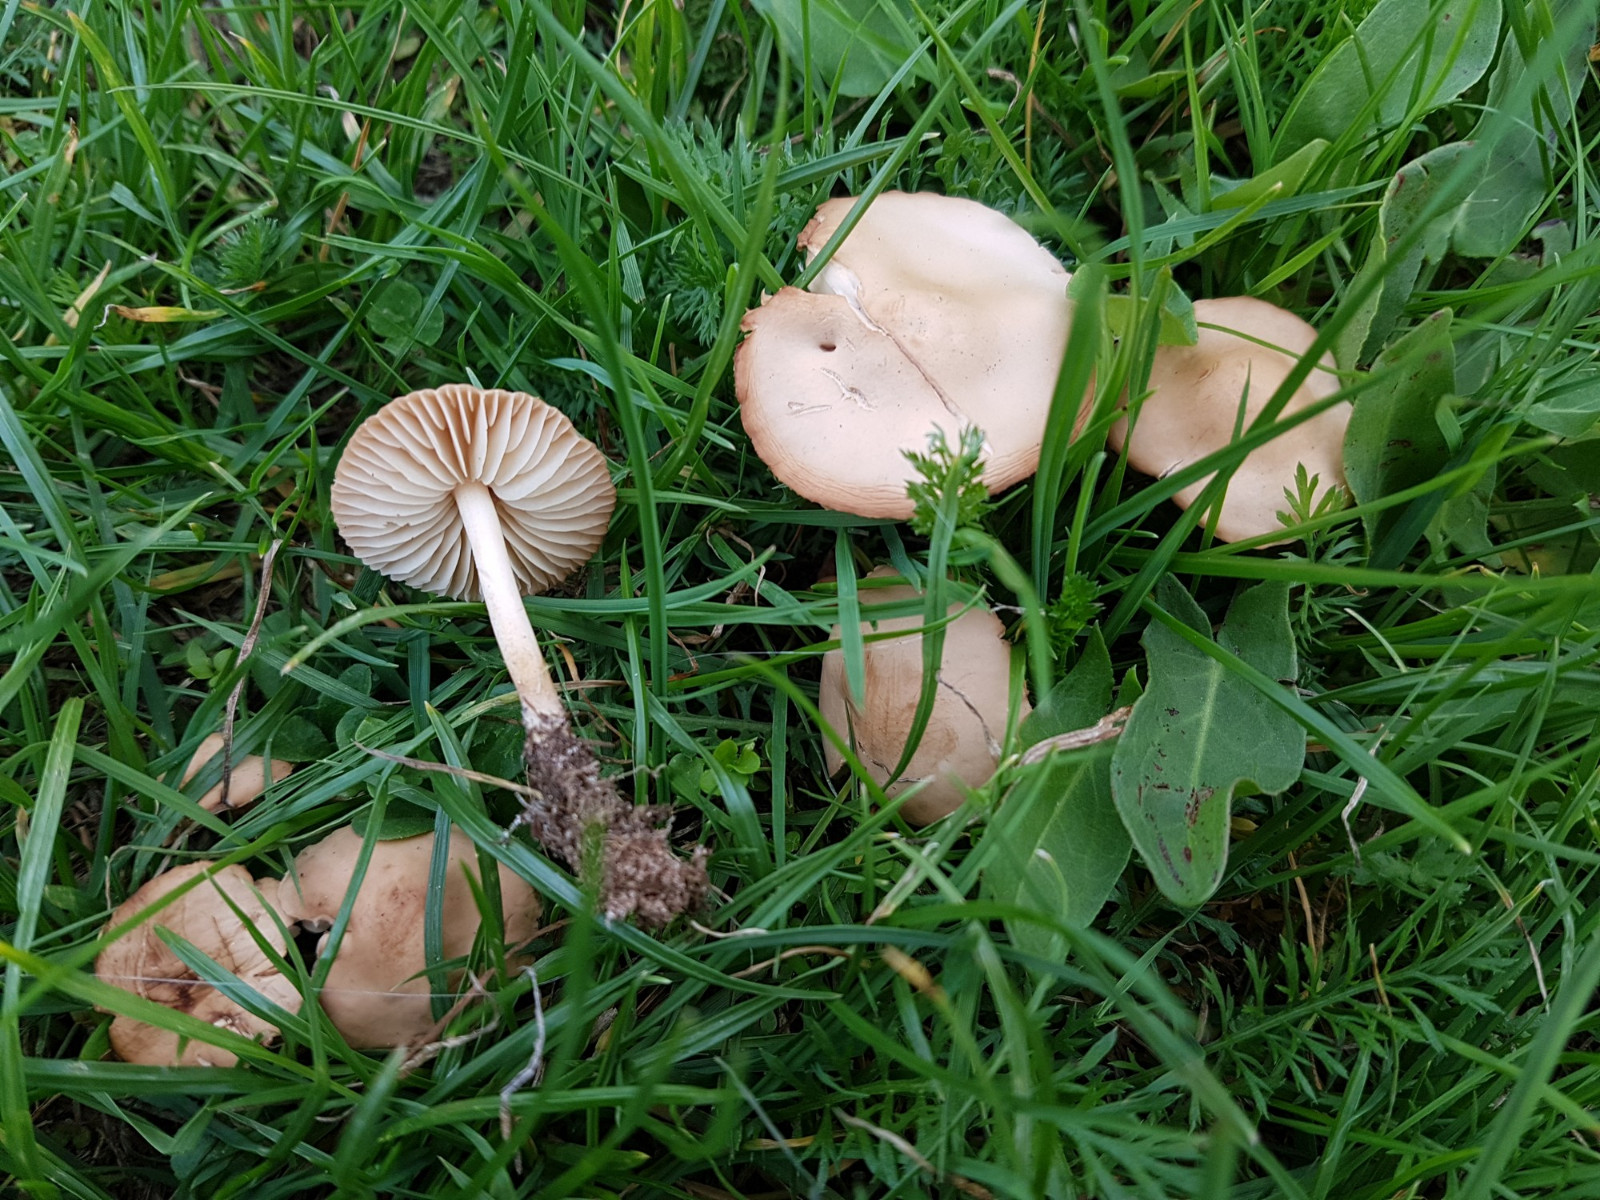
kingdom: Fungi
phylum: Basidiomycota
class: Agaricomycetes
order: Agaricales
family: Marasmiaceae
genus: Marasmius
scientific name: Marasmius oreades
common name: elledans-bruskhat
